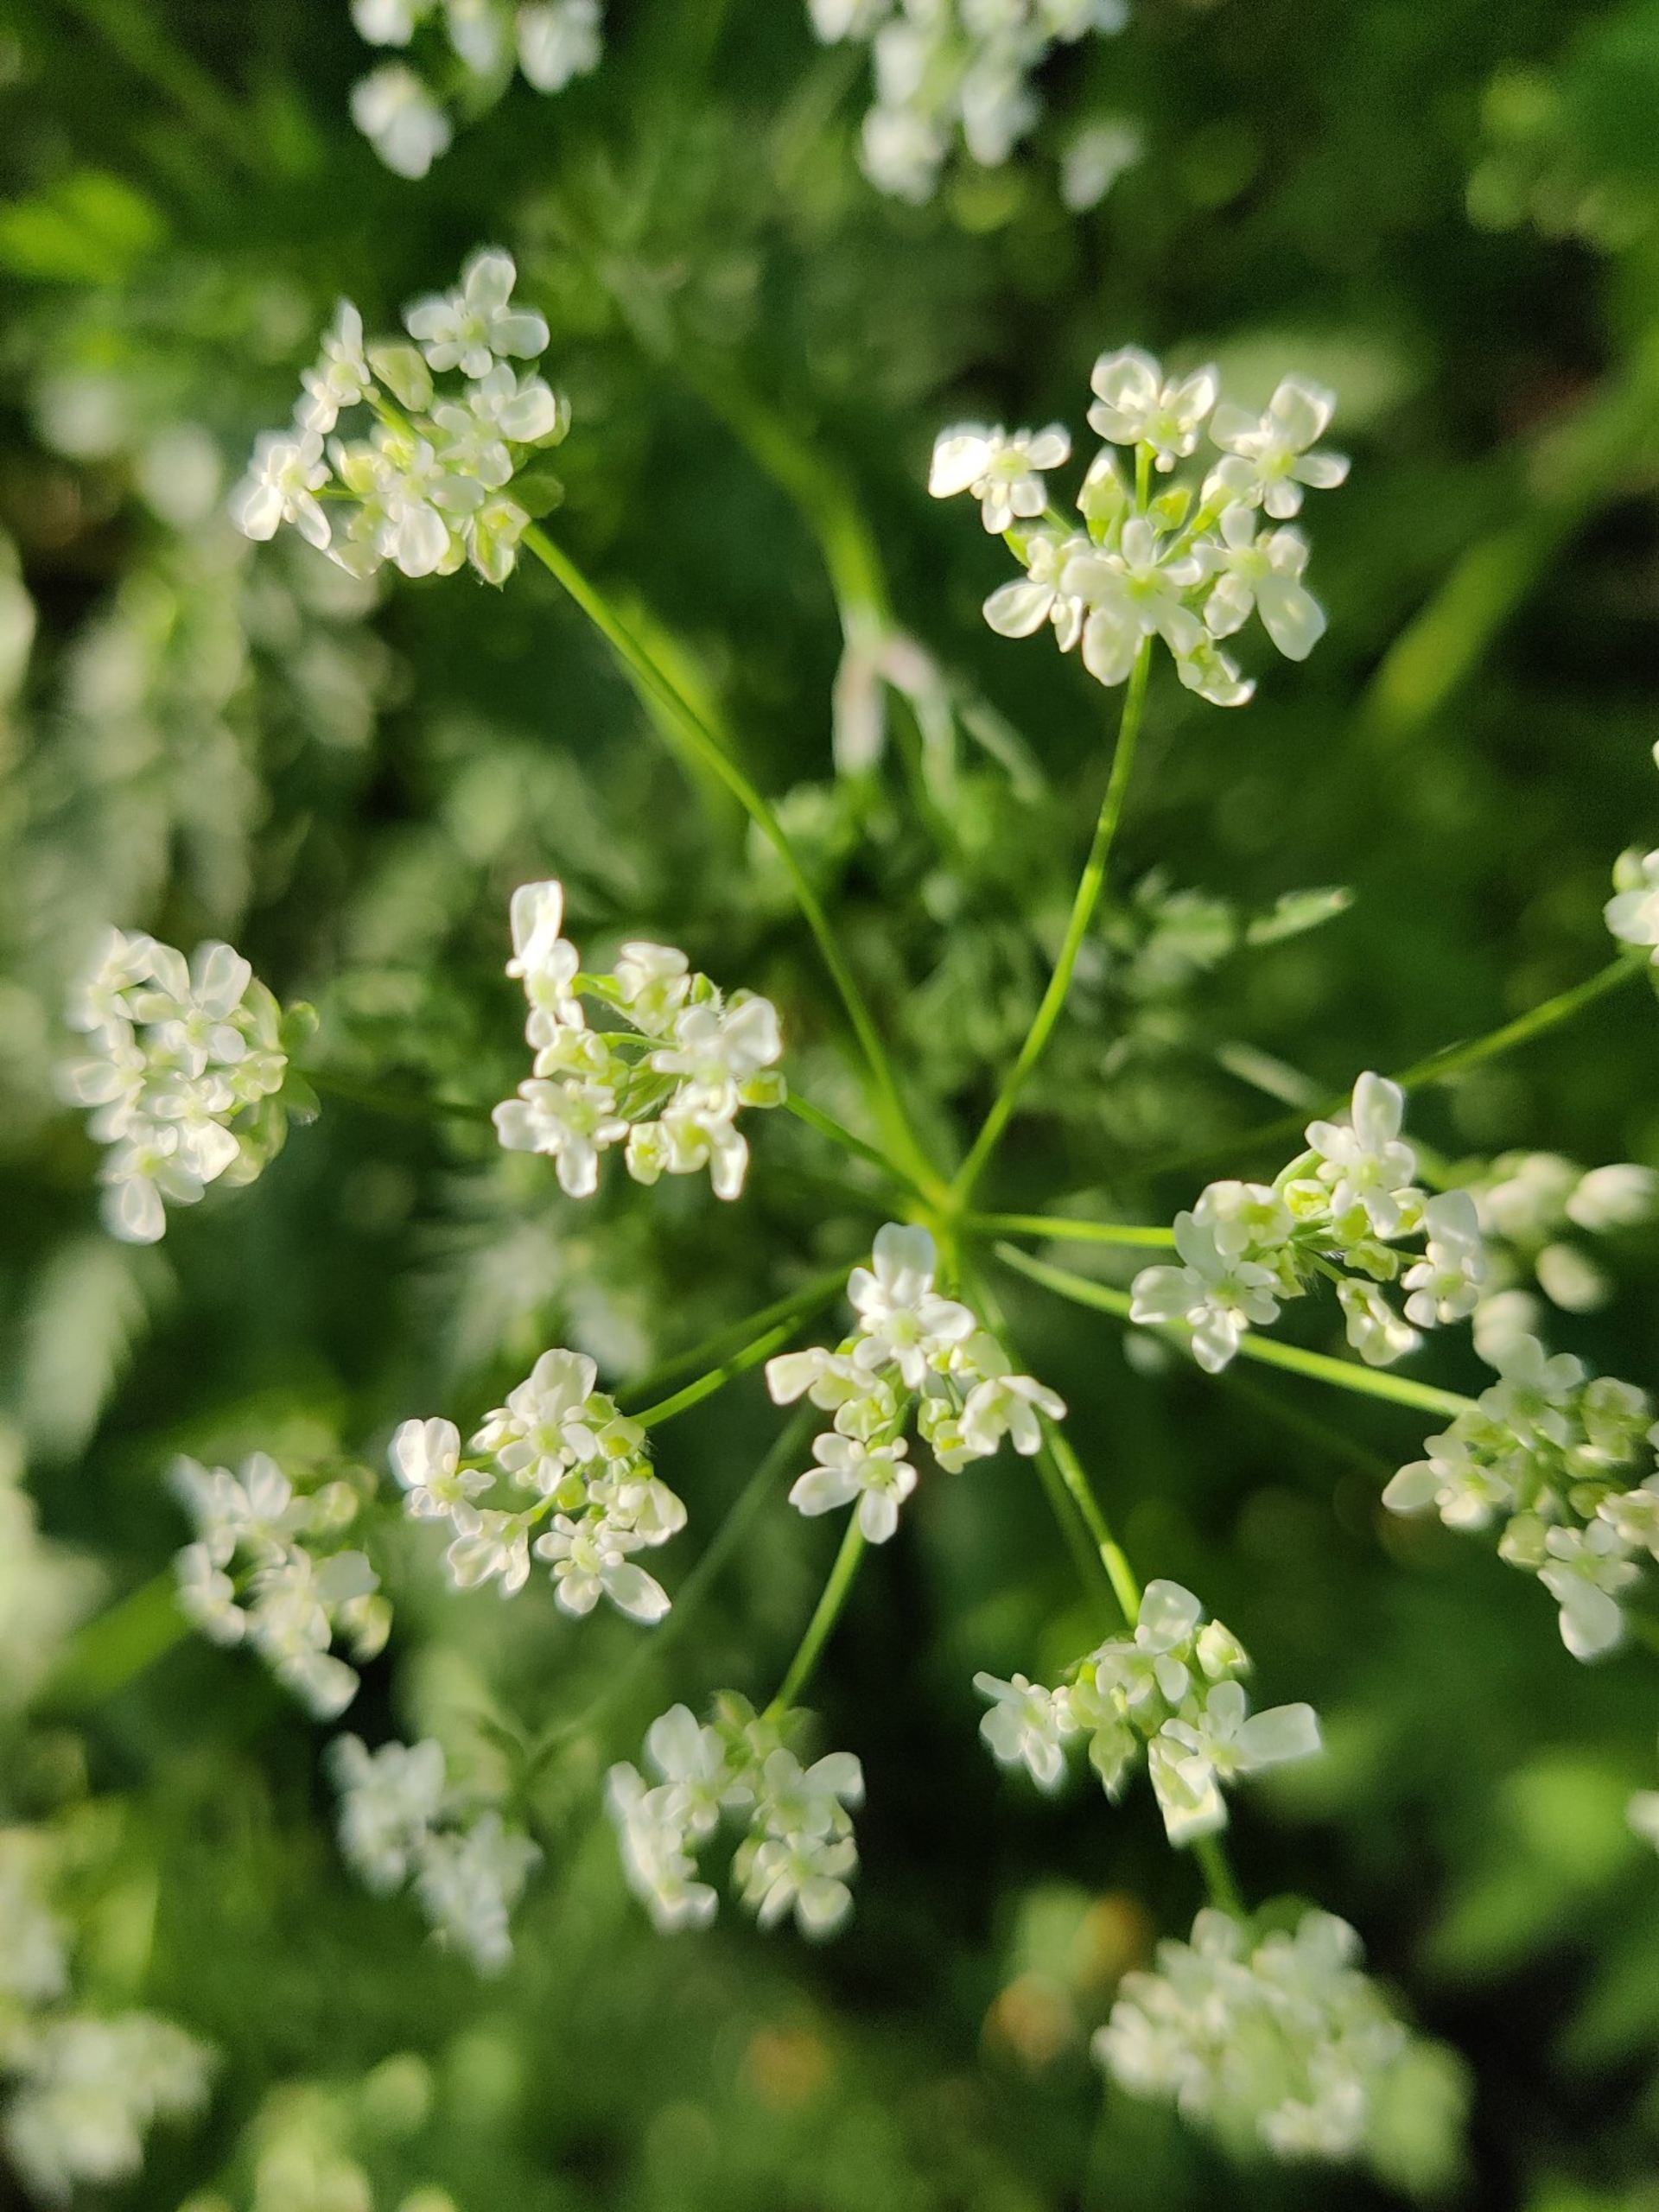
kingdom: Plantae
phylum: Tracheophyta
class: Magnoliopsida
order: Apiales
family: Apiaceae
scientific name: Apiaceae
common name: Skærmplantefamilien
